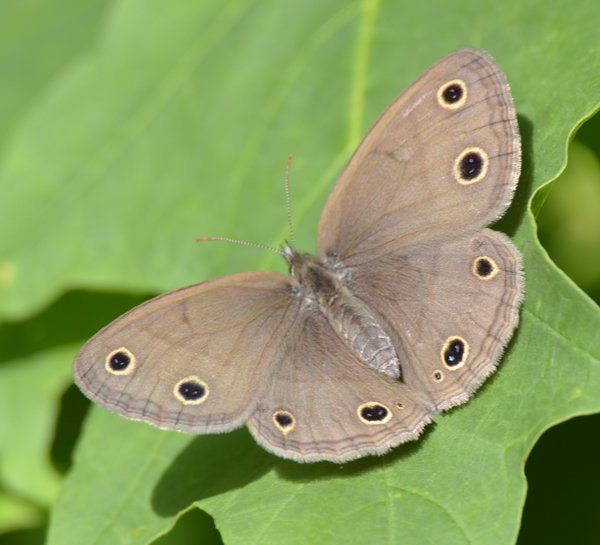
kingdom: Animalia
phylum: Arthropoda
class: Insecta
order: Lepidoptera
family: Nymphalidae
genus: Euptychia
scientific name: Euptychia cymela
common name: Little Wood Satyr
